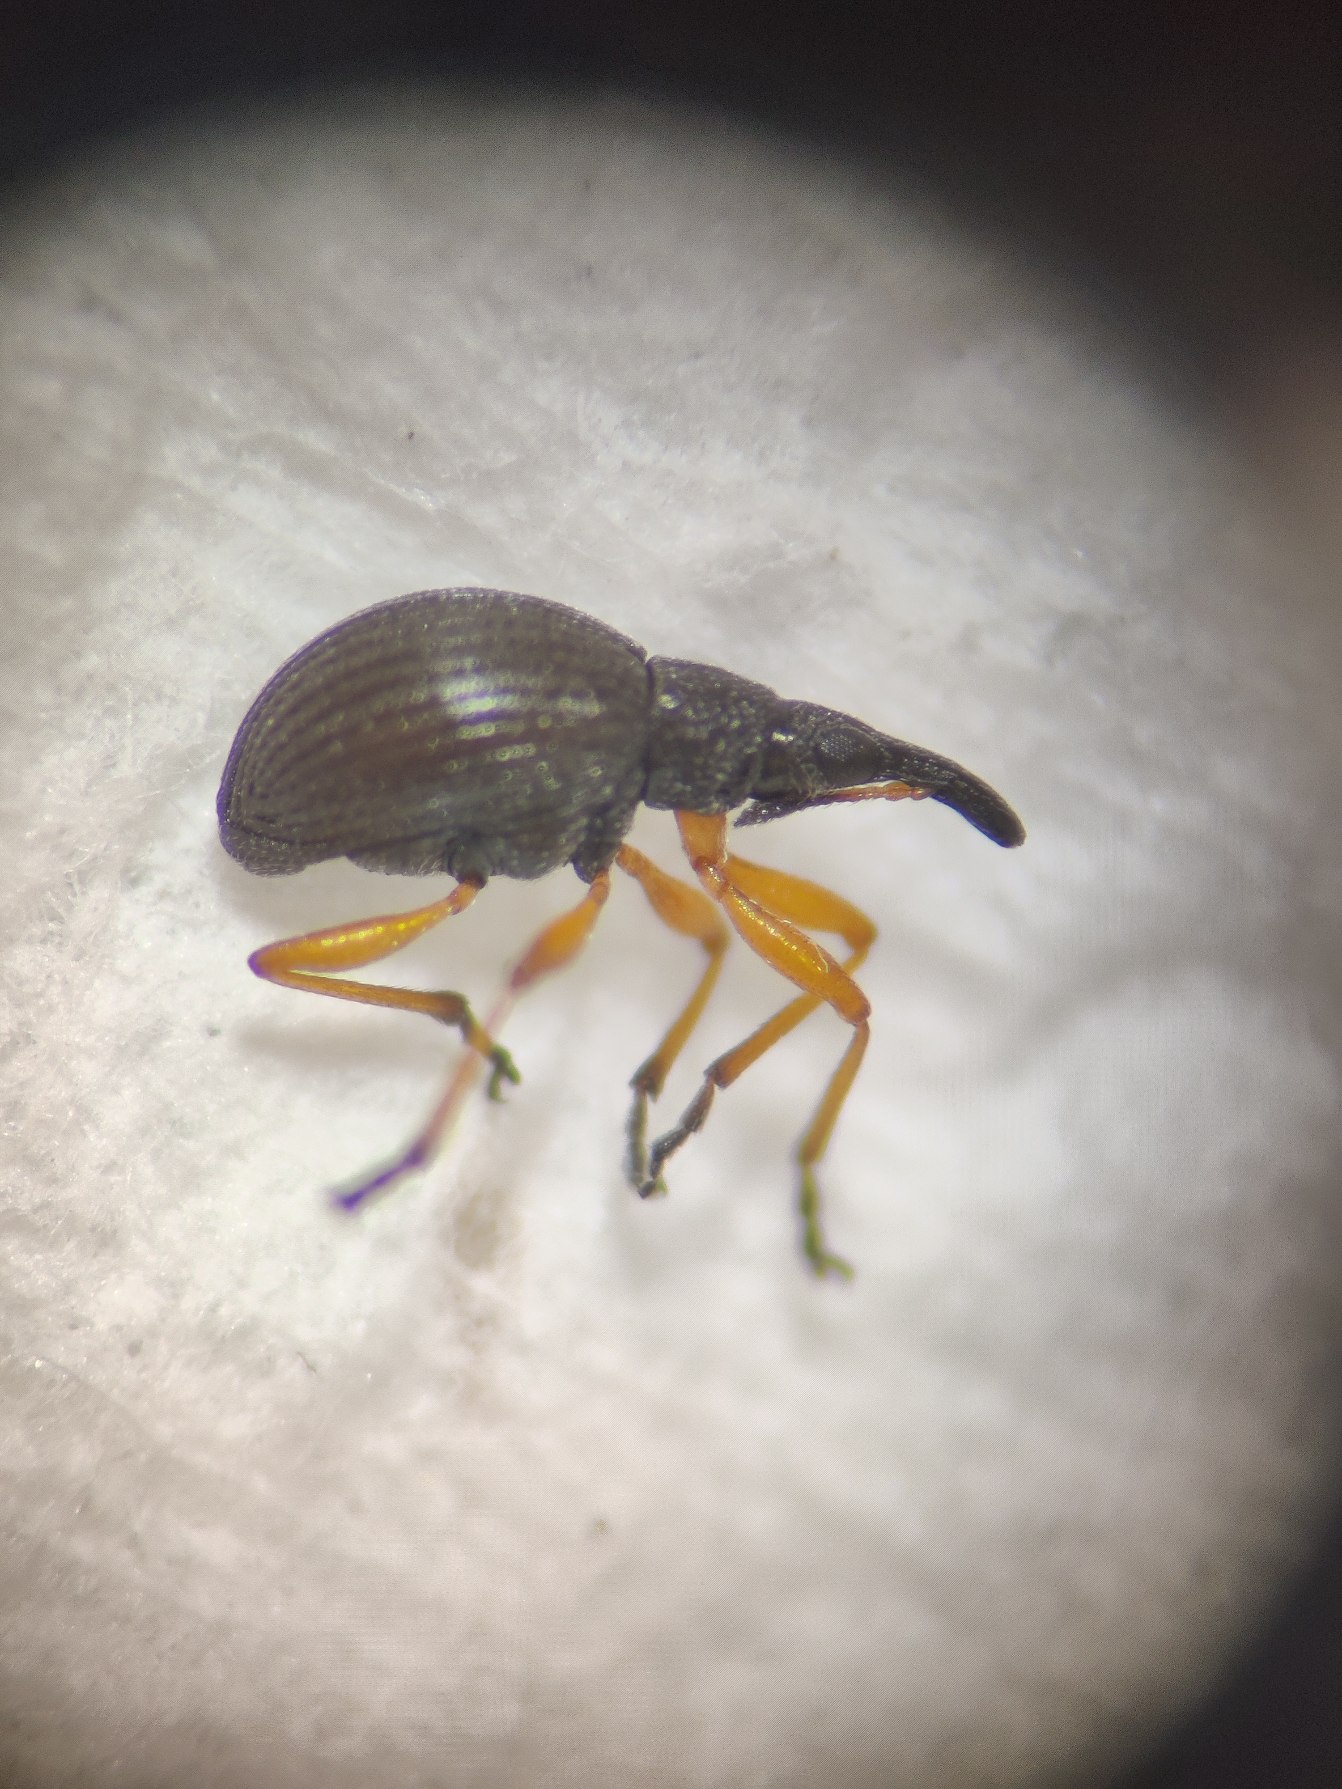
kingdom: Animalia
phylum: Arthropoda
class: Insecta
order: Coleoptera
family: Apionidae
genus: Protapion
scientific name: Protapion fulvipes
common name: Hvidkløversnudebille
